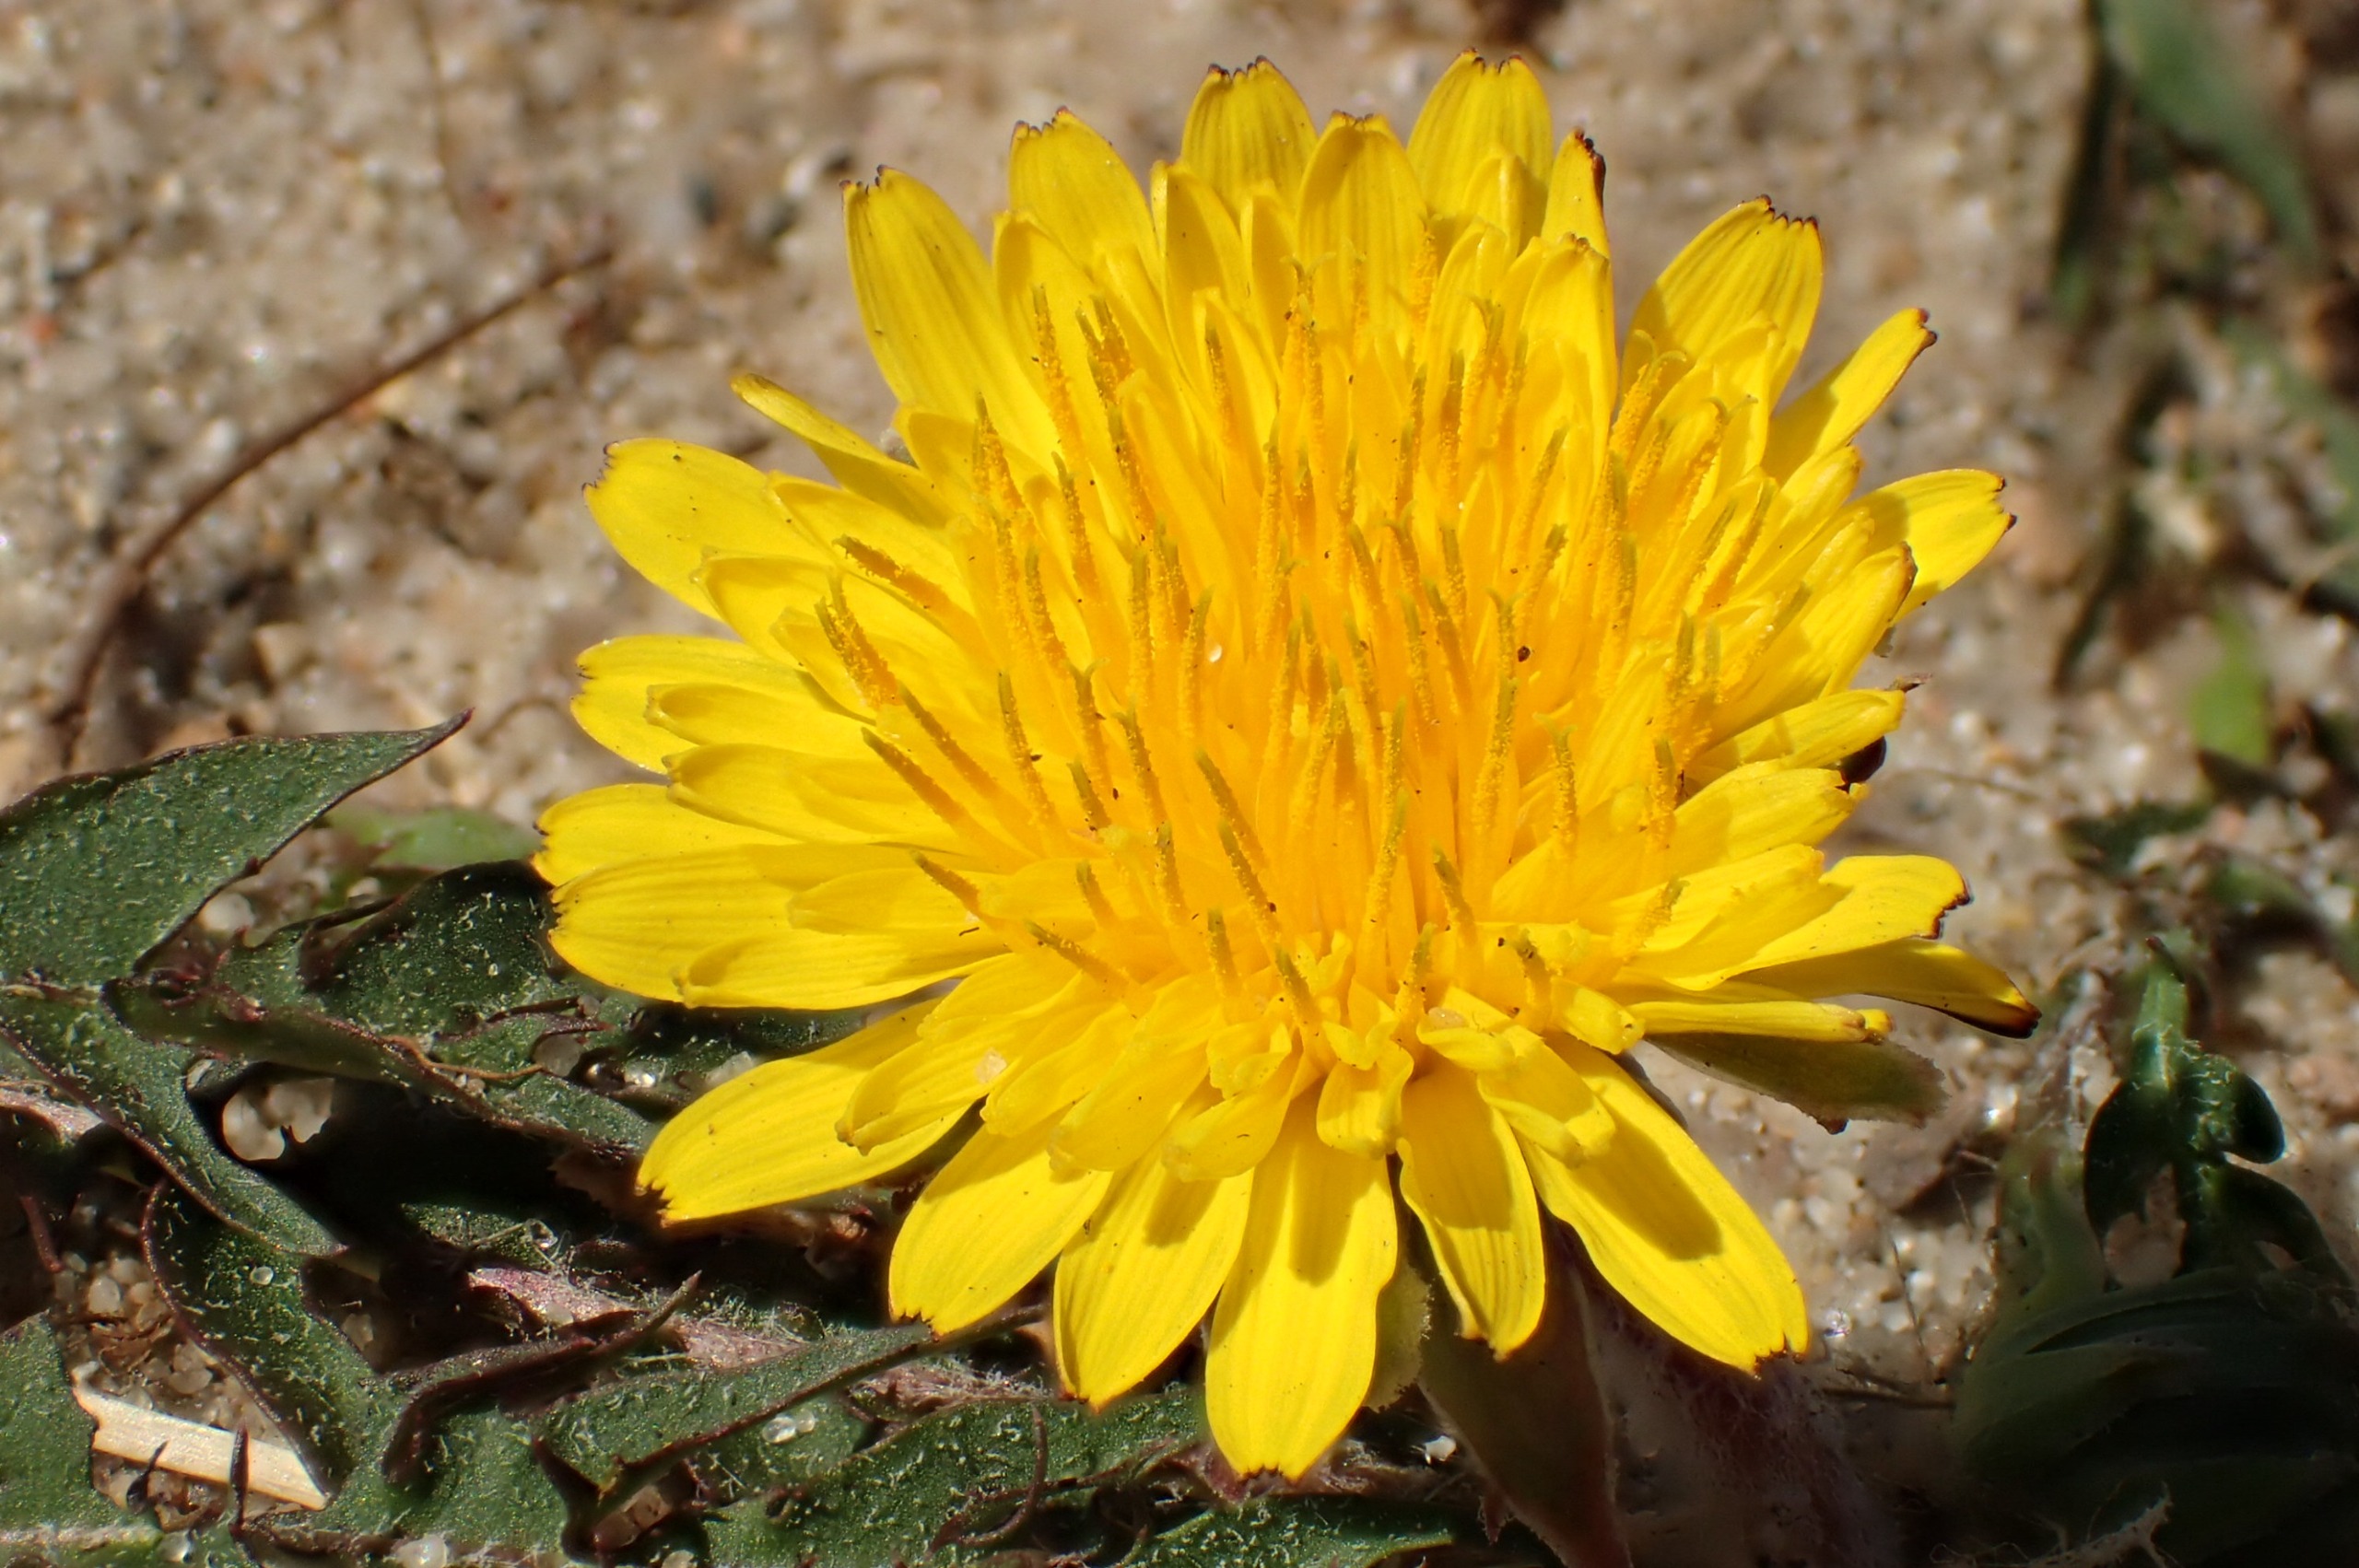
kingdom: Plantae
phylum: Tracheophyta
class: Magnoliopsida
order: Asterales
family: Asteraceae
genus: Taraxacum
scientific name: Taraxacum brachyglossum
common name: Mørk sandmælkebøtte
